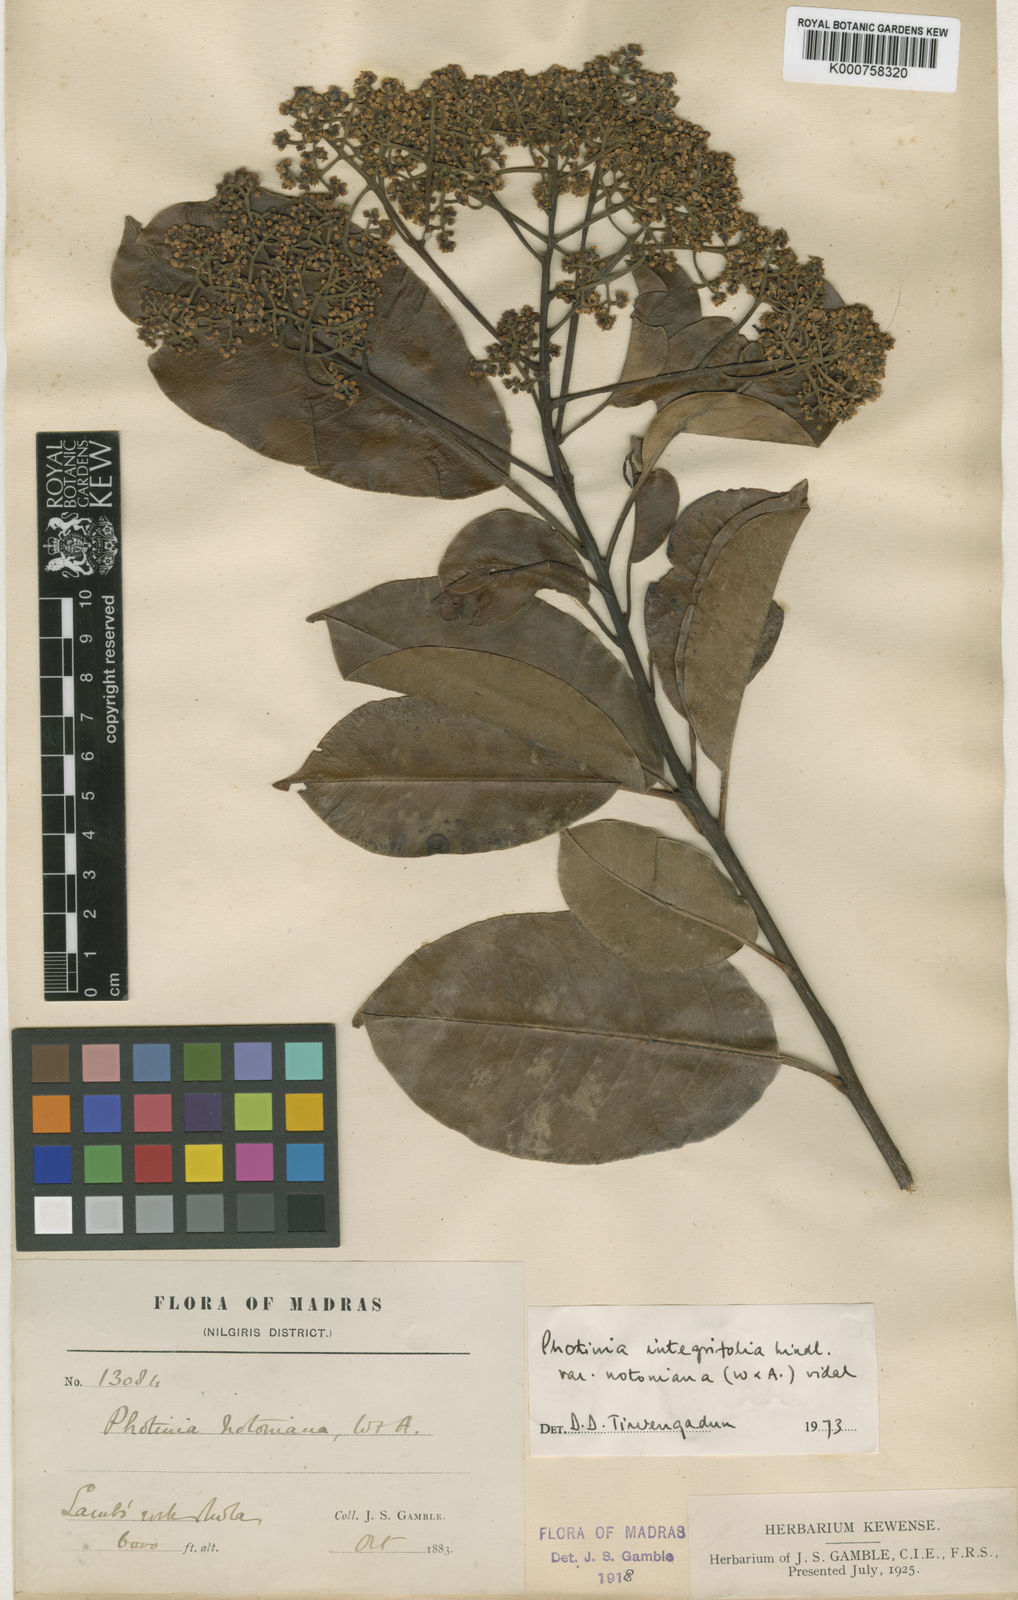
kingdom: Plantae
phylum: Tracheophyta
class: Magnoliopsida
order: Rosales
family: Rosaceae
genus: Photinia
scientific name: Photinia integrifolia
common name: Himalayan chokeberry
